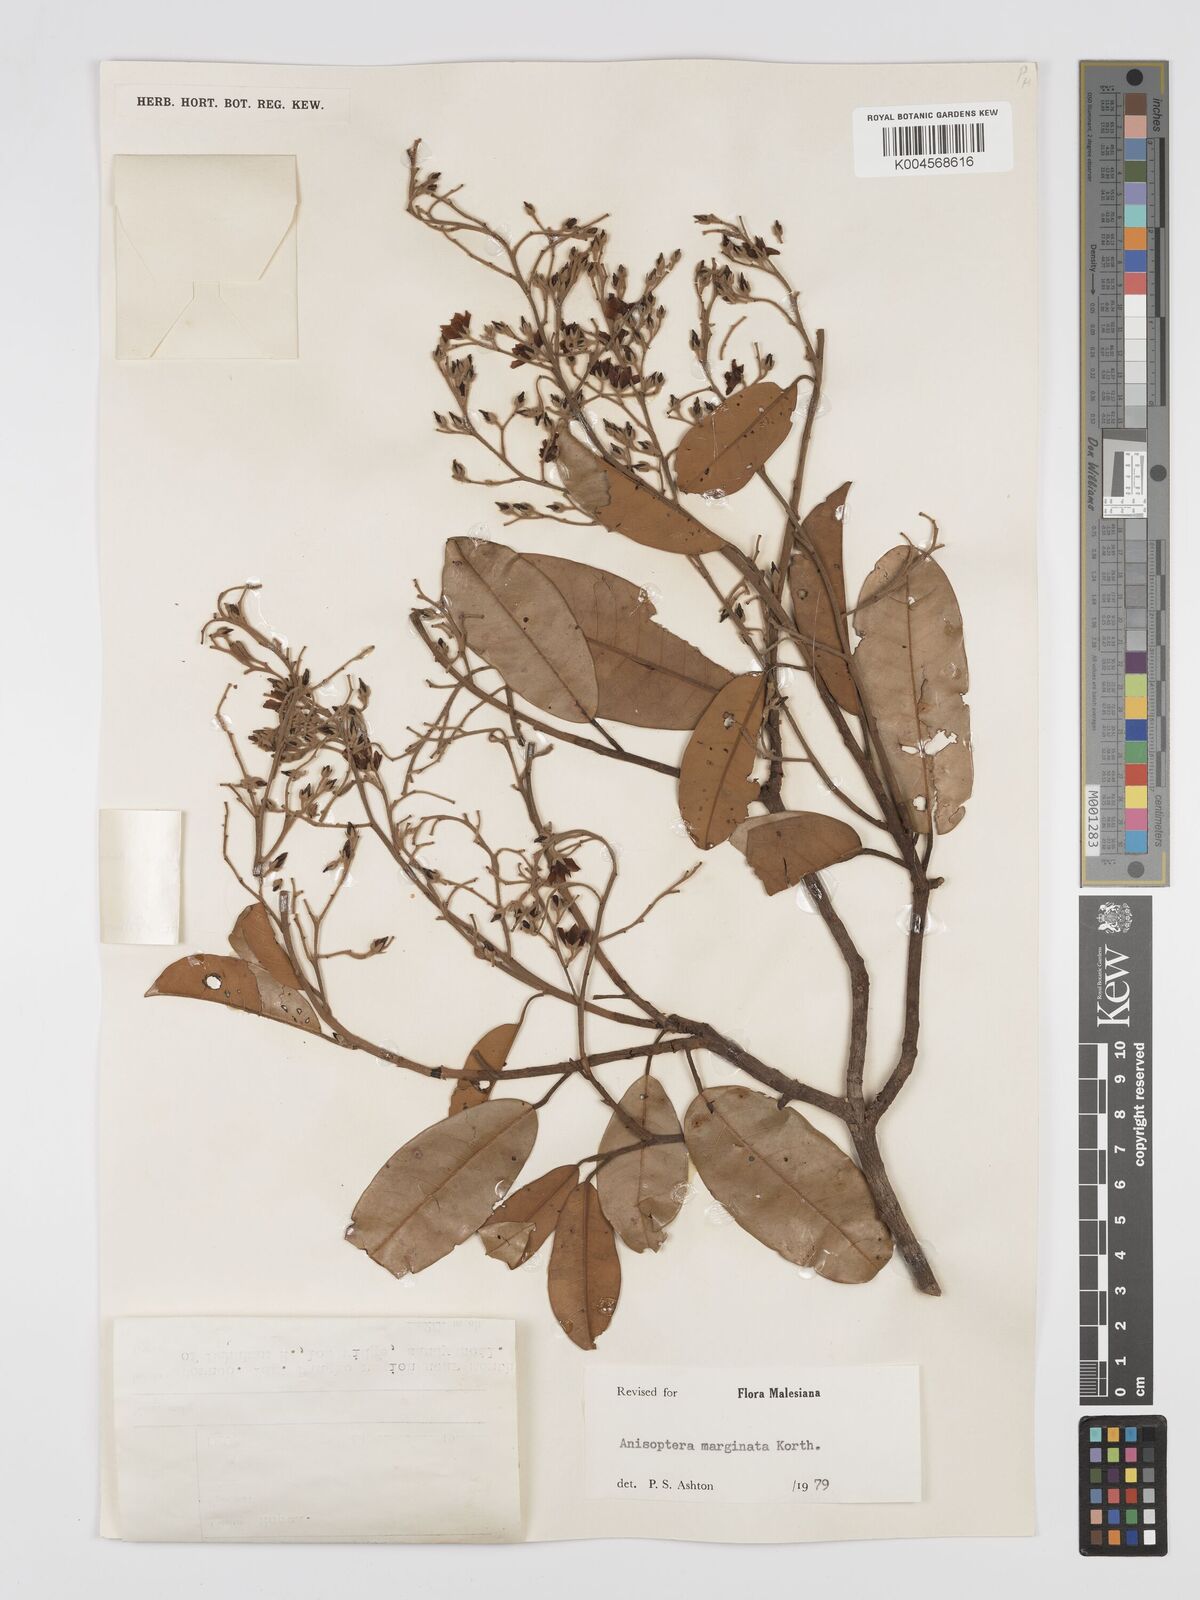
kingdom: Plantae
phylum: Tracheophyta
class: Magnoliopsida
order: Malvales
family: Dipterocarpaceae
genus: Anisoptera
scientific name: Anisoptera marginata
